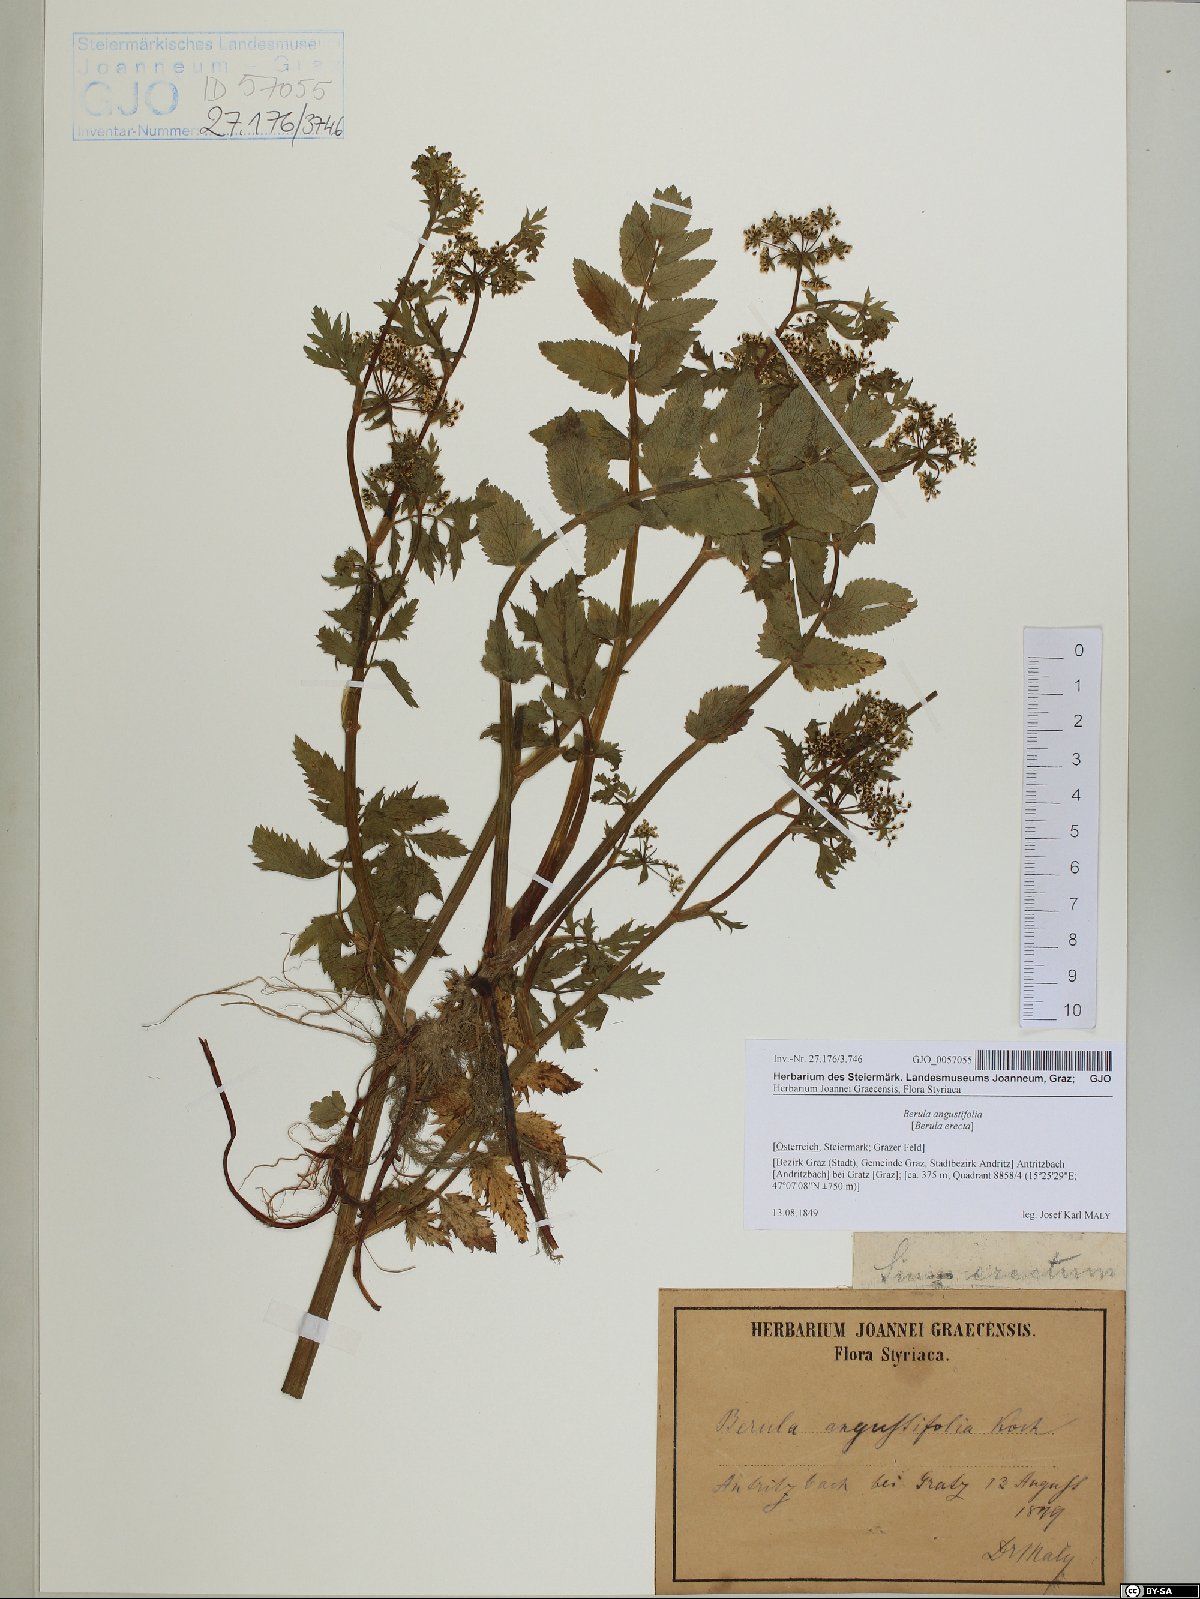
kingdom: Plantae
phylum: Tracheophyta
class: Magnoliopsida
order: Apiales
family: Apiaceae
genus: Berula
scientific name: Berula erecta
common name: Lesser water-parsnip
